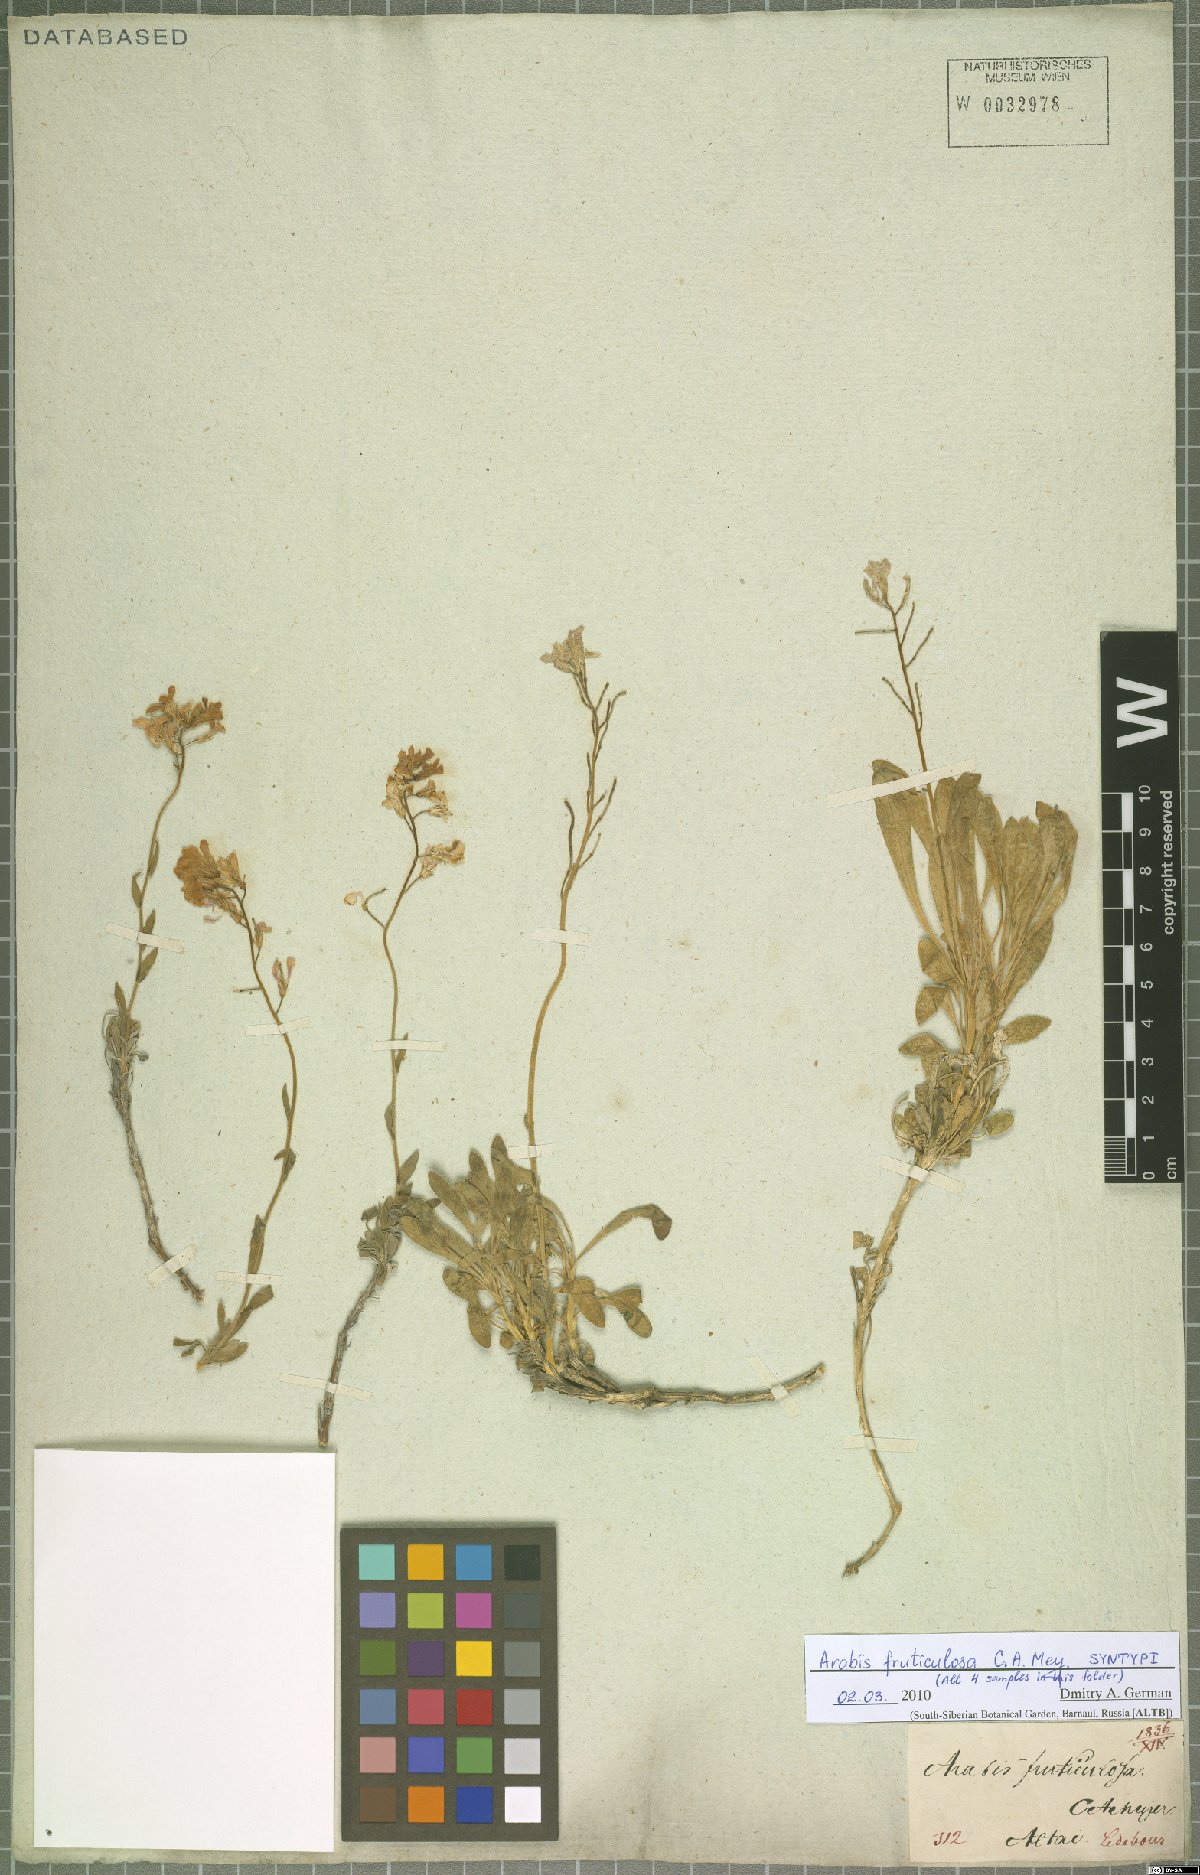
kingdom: Plantae
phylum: Tracheophyta
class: Magnoliopsida
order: Brassicales
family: Brassicaceae
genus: Dendroarabis
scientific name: Dendroarabis fruticulosa
